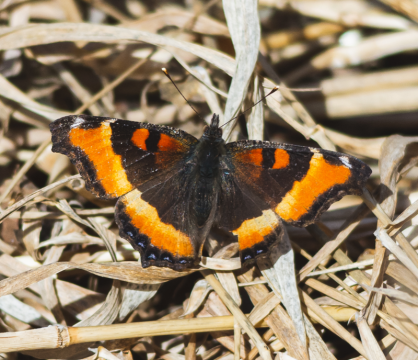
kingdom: Animalia
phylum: Arthropoda
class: Insecta
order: Lepidoptera
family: Nymphalidae
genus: Aglais
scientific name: Aglais milberti
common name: Milbert's Tortoiseshell
